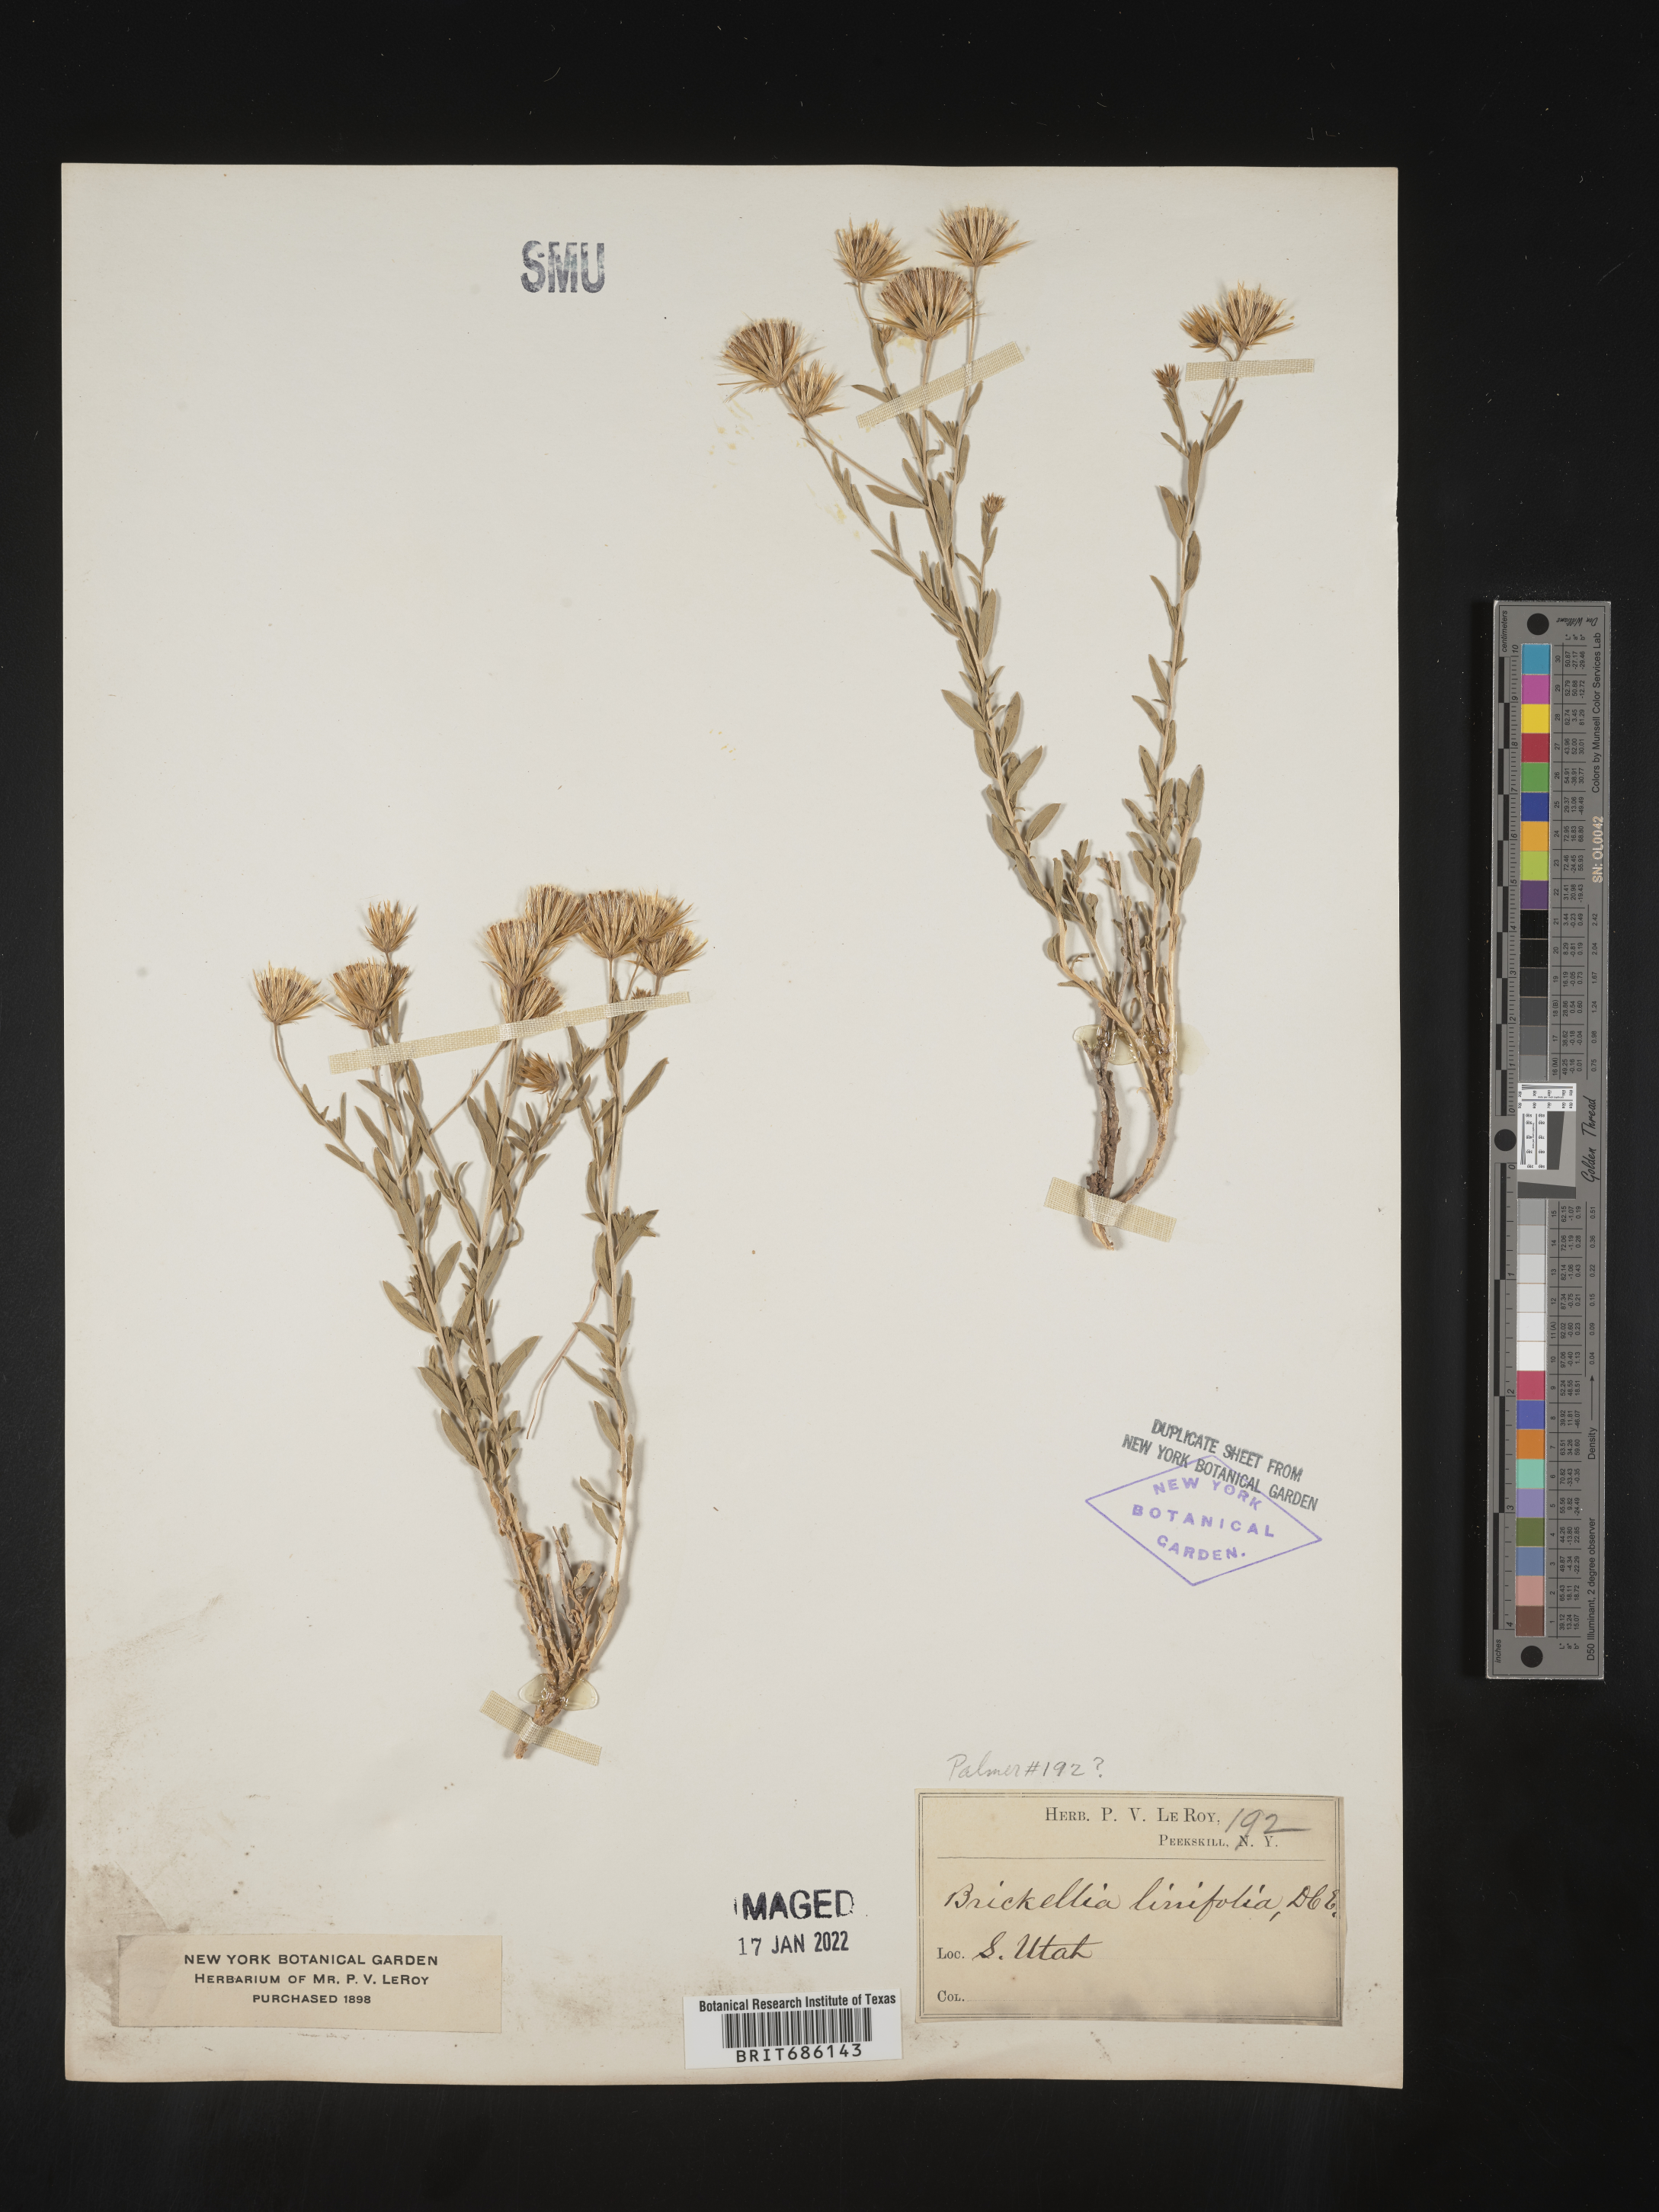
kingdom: Plantae
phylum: Tracheophyta
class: Magnoliopsida
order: Asterales
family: Asteraceae
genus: Brickellia
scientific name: Brickellia oblongifolia
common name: Mojave brickellbush
